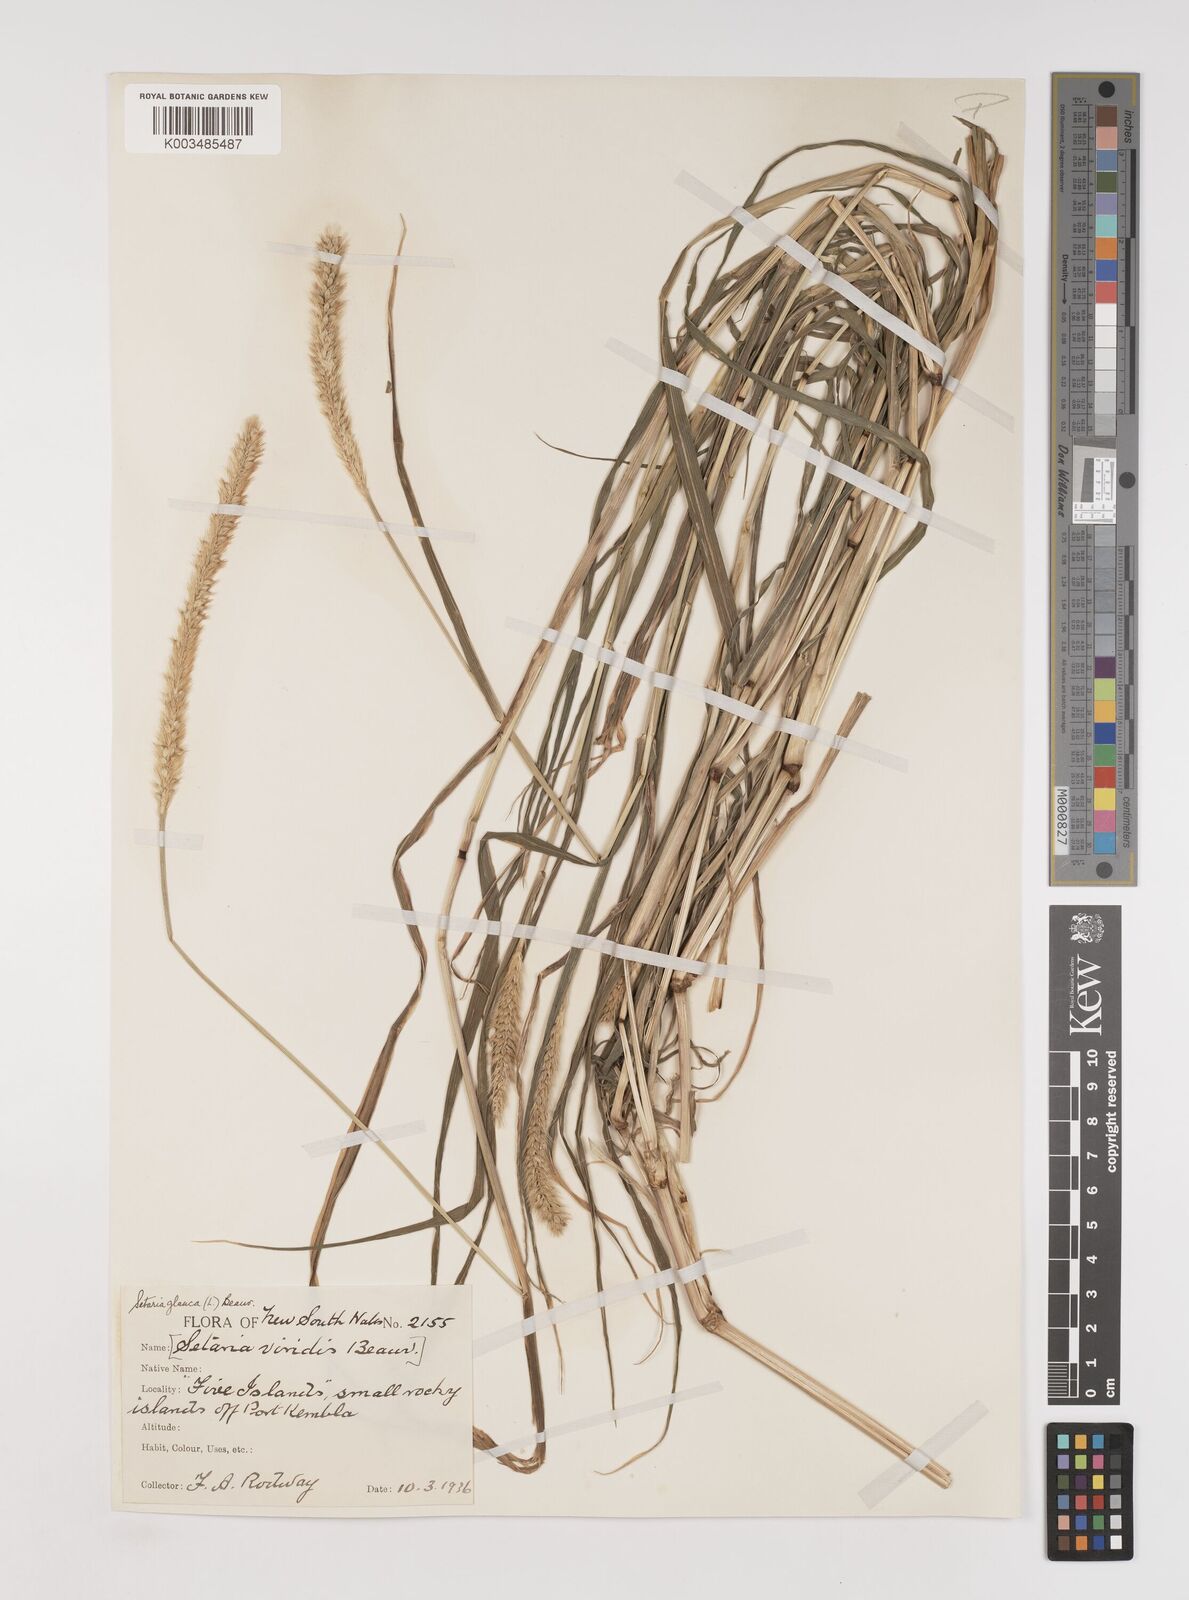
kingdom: Plantae
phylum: Tracheophyta
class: Liliopsida
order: Poales
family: Poaceae
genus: Setaria
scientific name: Setaria pumila
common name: Yellow bristle-grass
